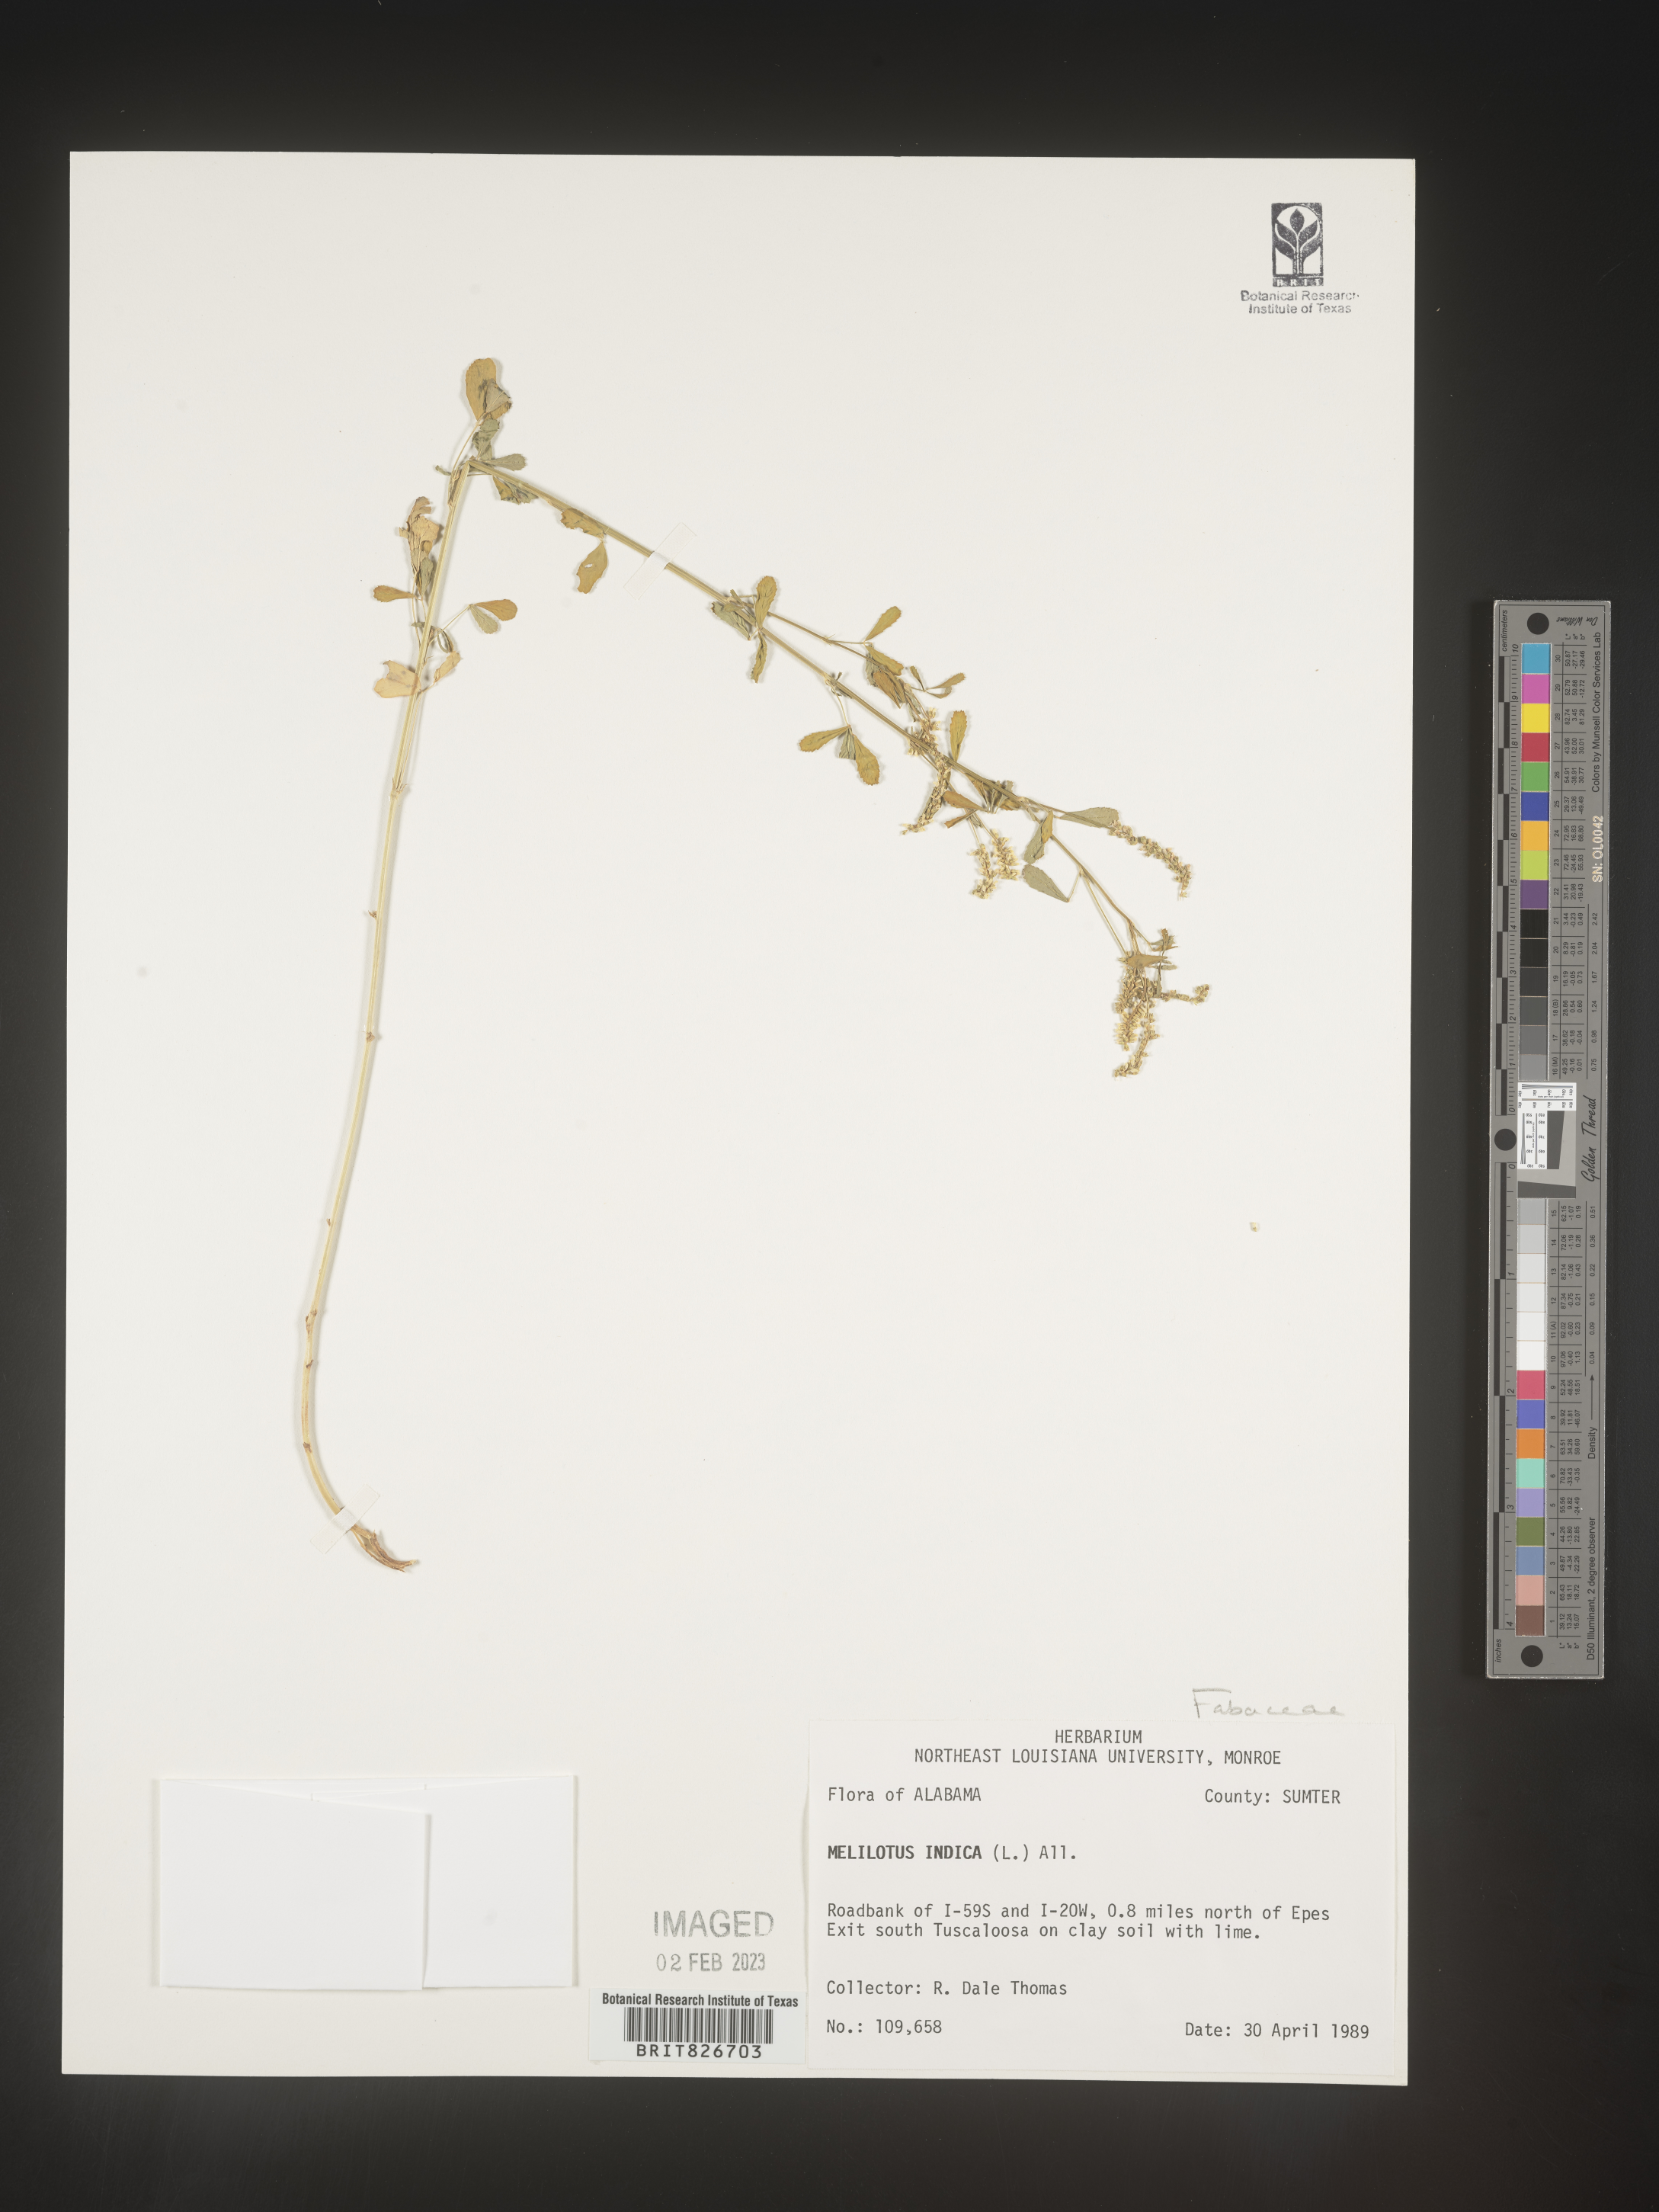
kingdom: Plantae
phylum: Tracheophyta
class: Magnoliopsida
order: Fabales
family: Fabaceae
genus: Melilotus
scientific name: Melilotus indicus
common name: Small melilot
